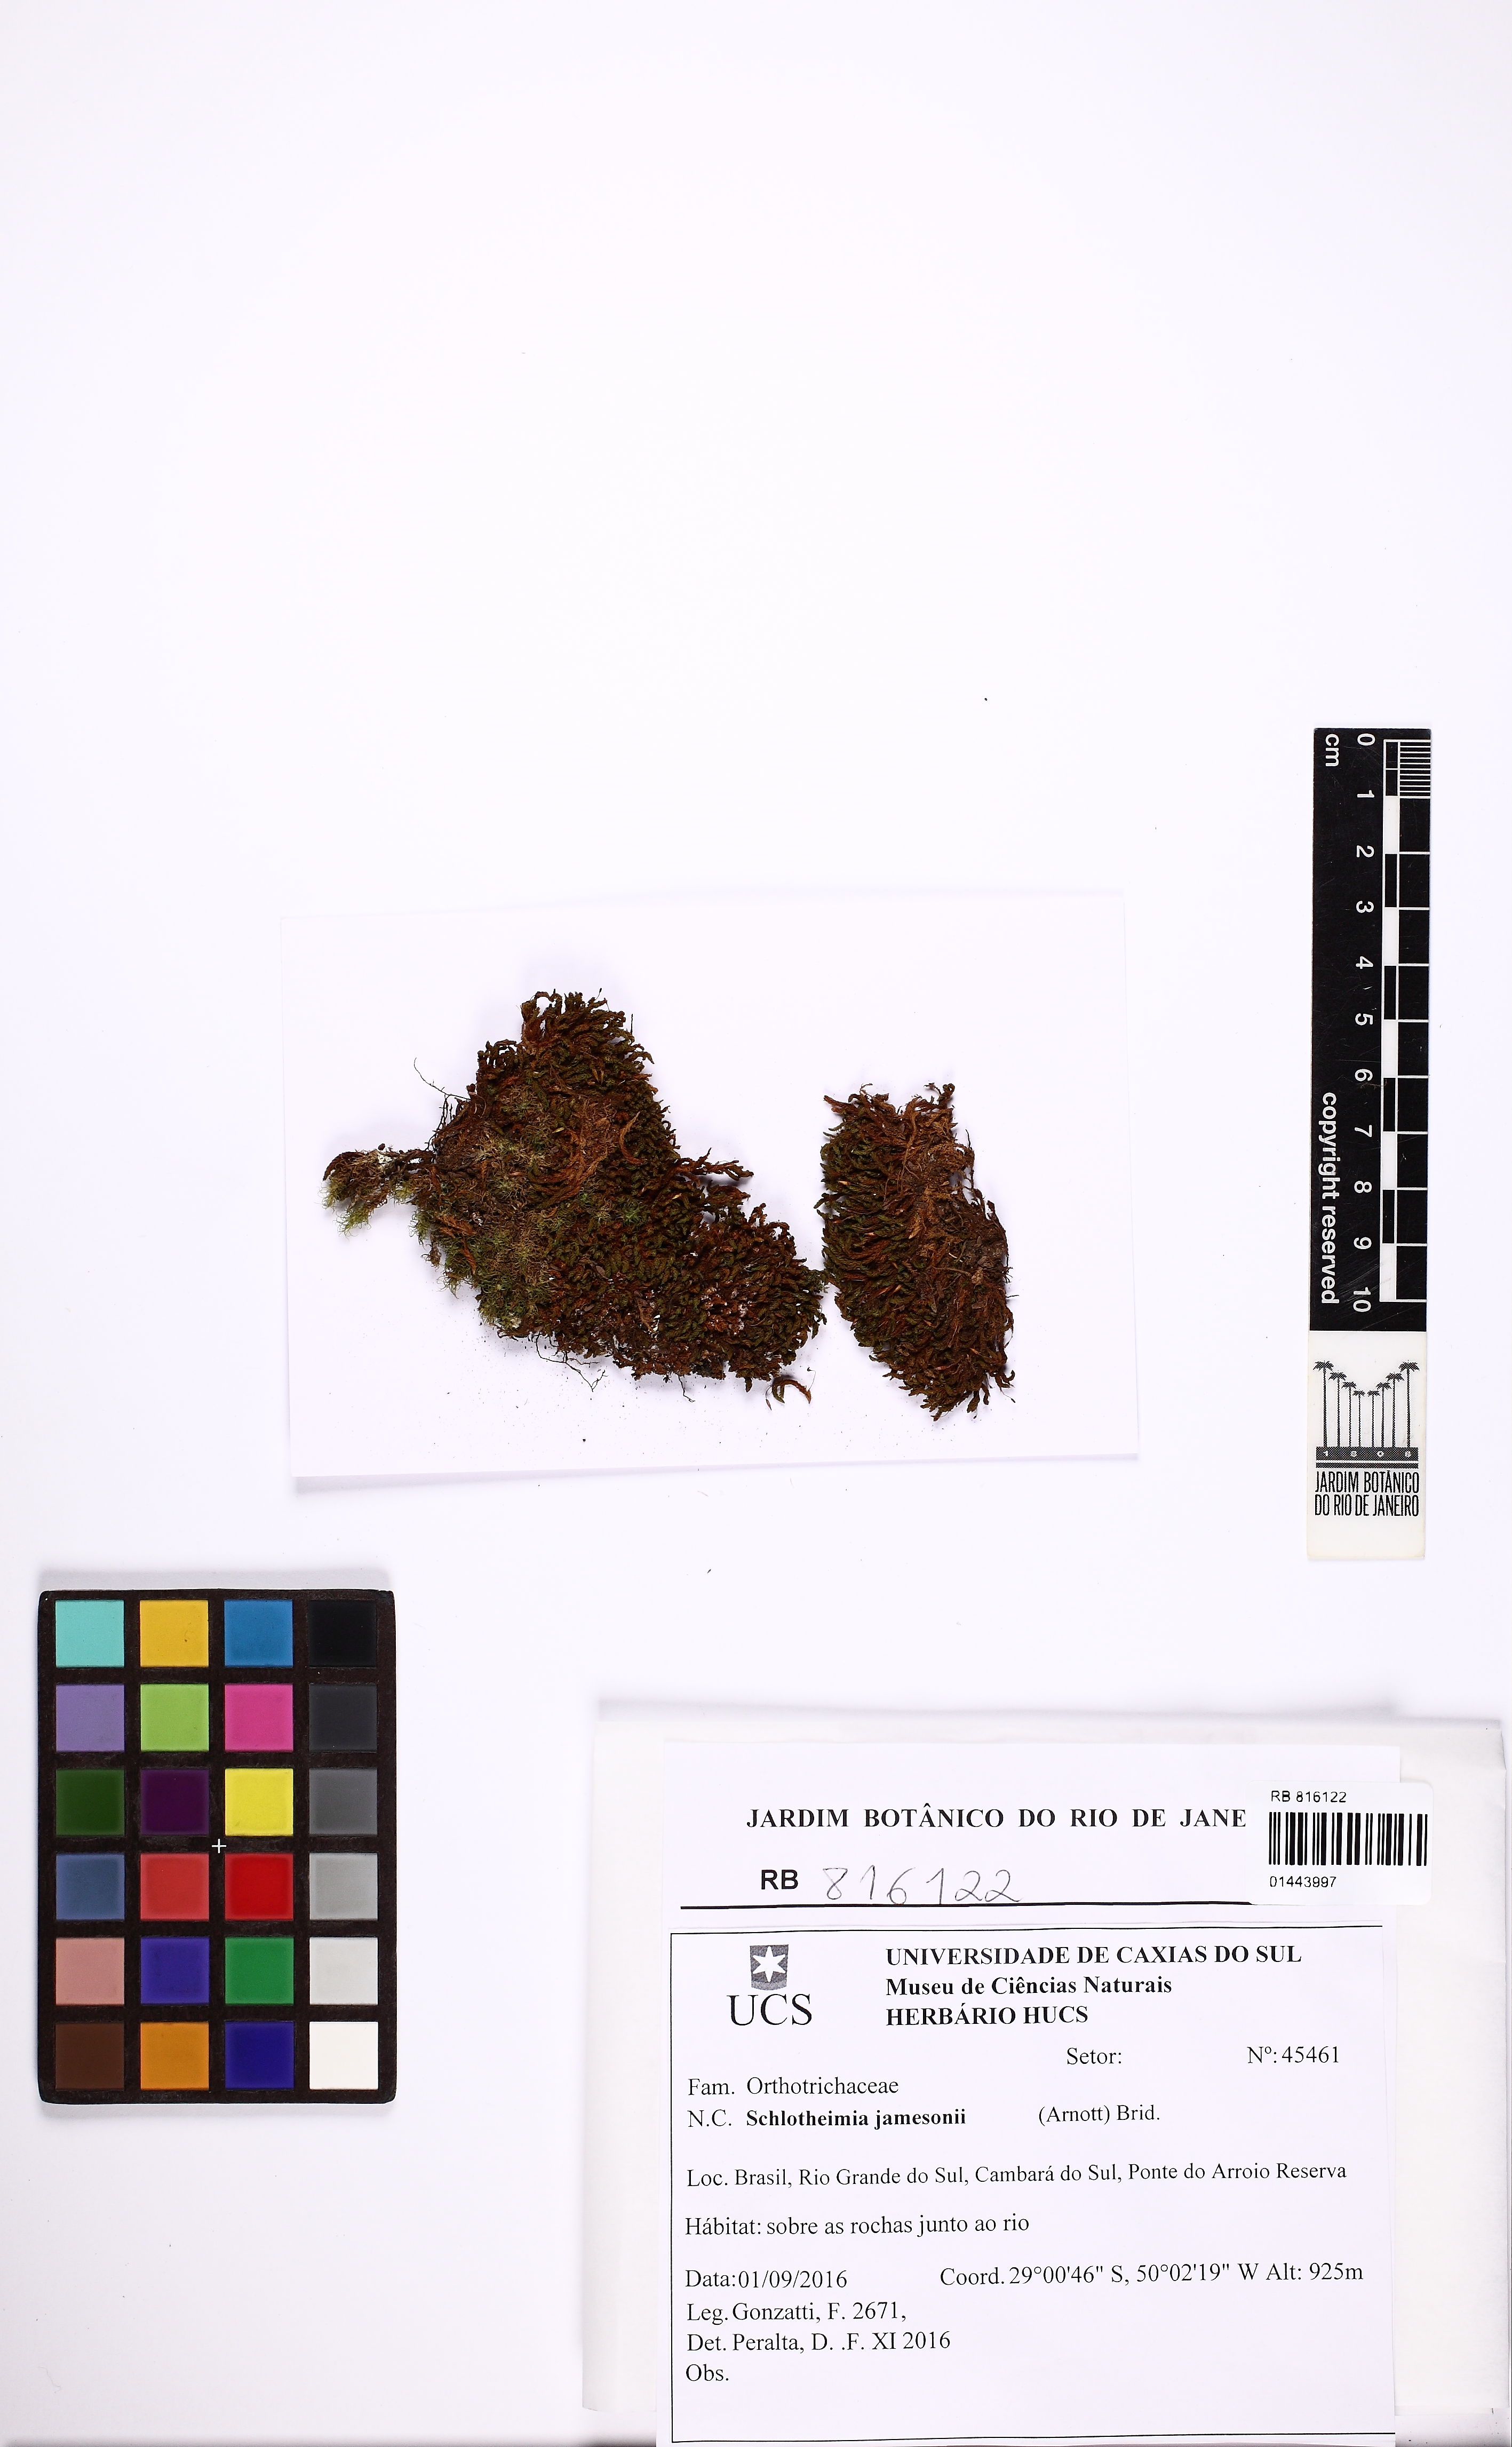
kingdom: Plantae
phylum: Bryophyta
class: Bryopsida
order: Orthotrichales
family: Orthotrichaceae
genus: Schlotheimia
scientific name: Schlotheimia jamesonii
